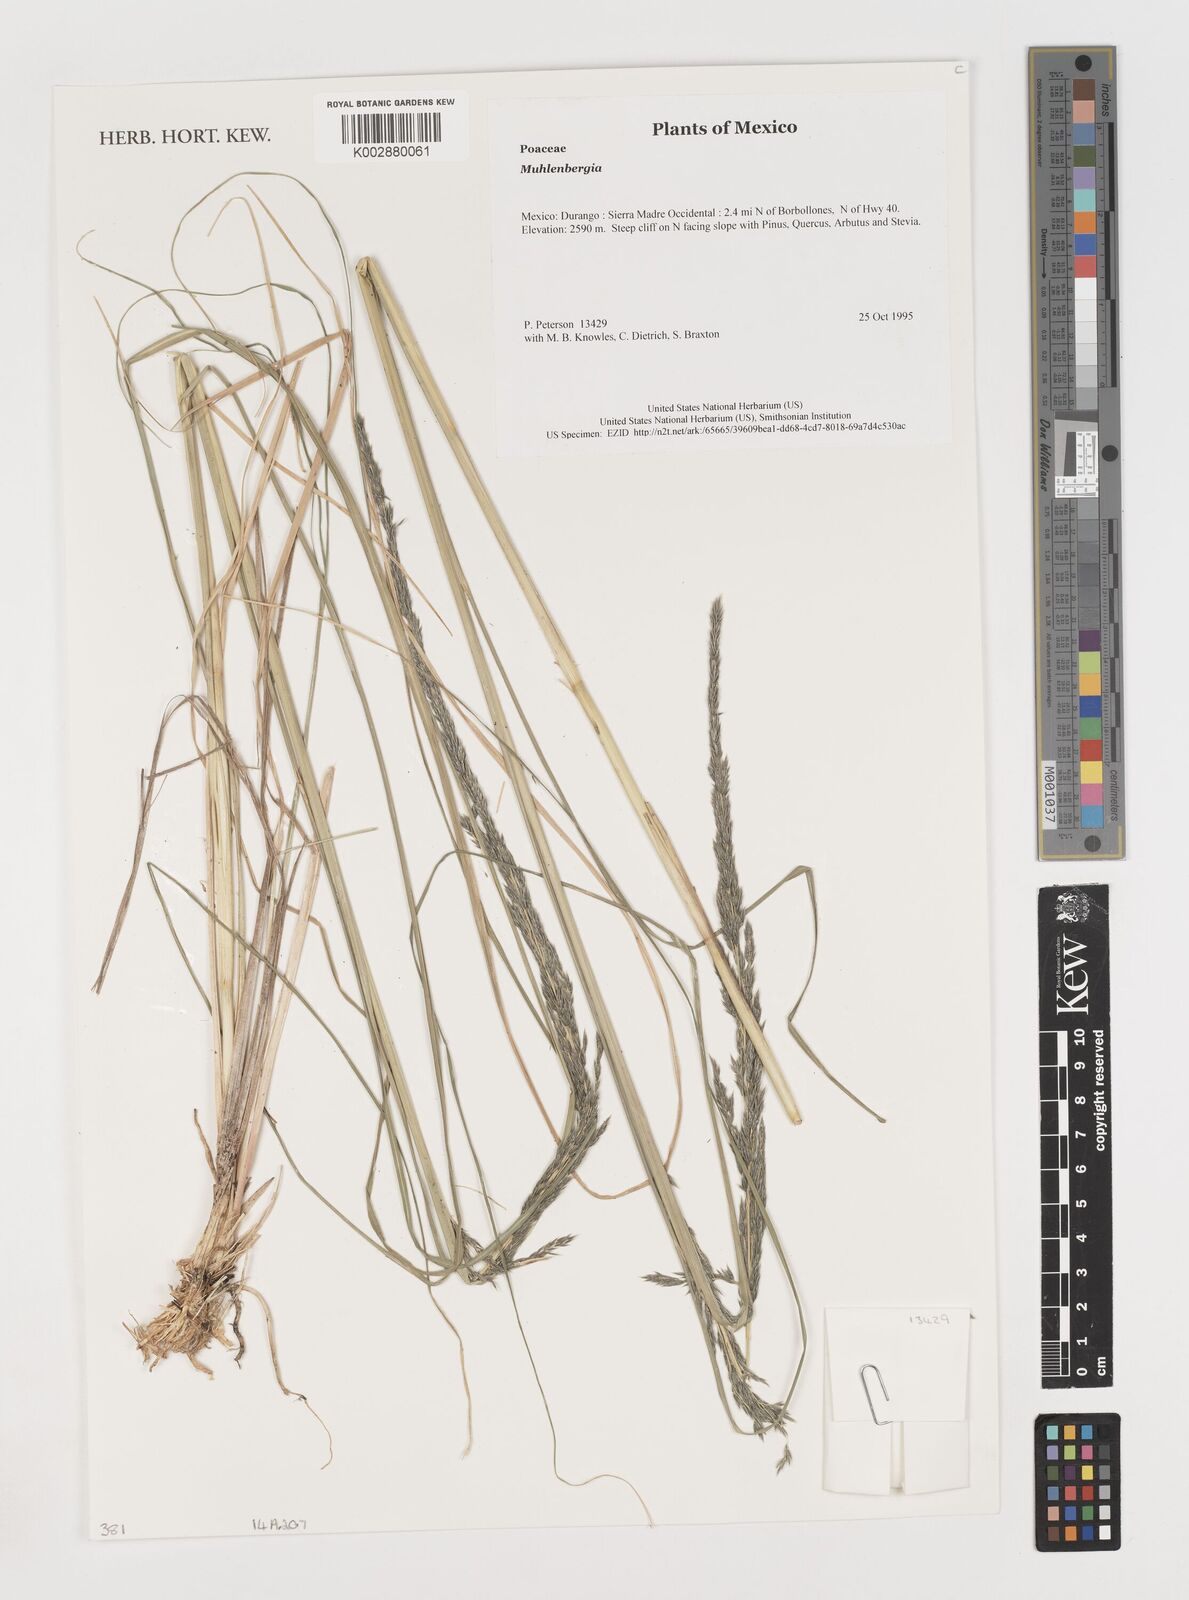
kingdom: Plantae
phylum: Tracheophyta
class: Liliopsida
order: Poales
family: Poaceae
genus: Muhlenbergia
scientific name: Muhlenbergia
